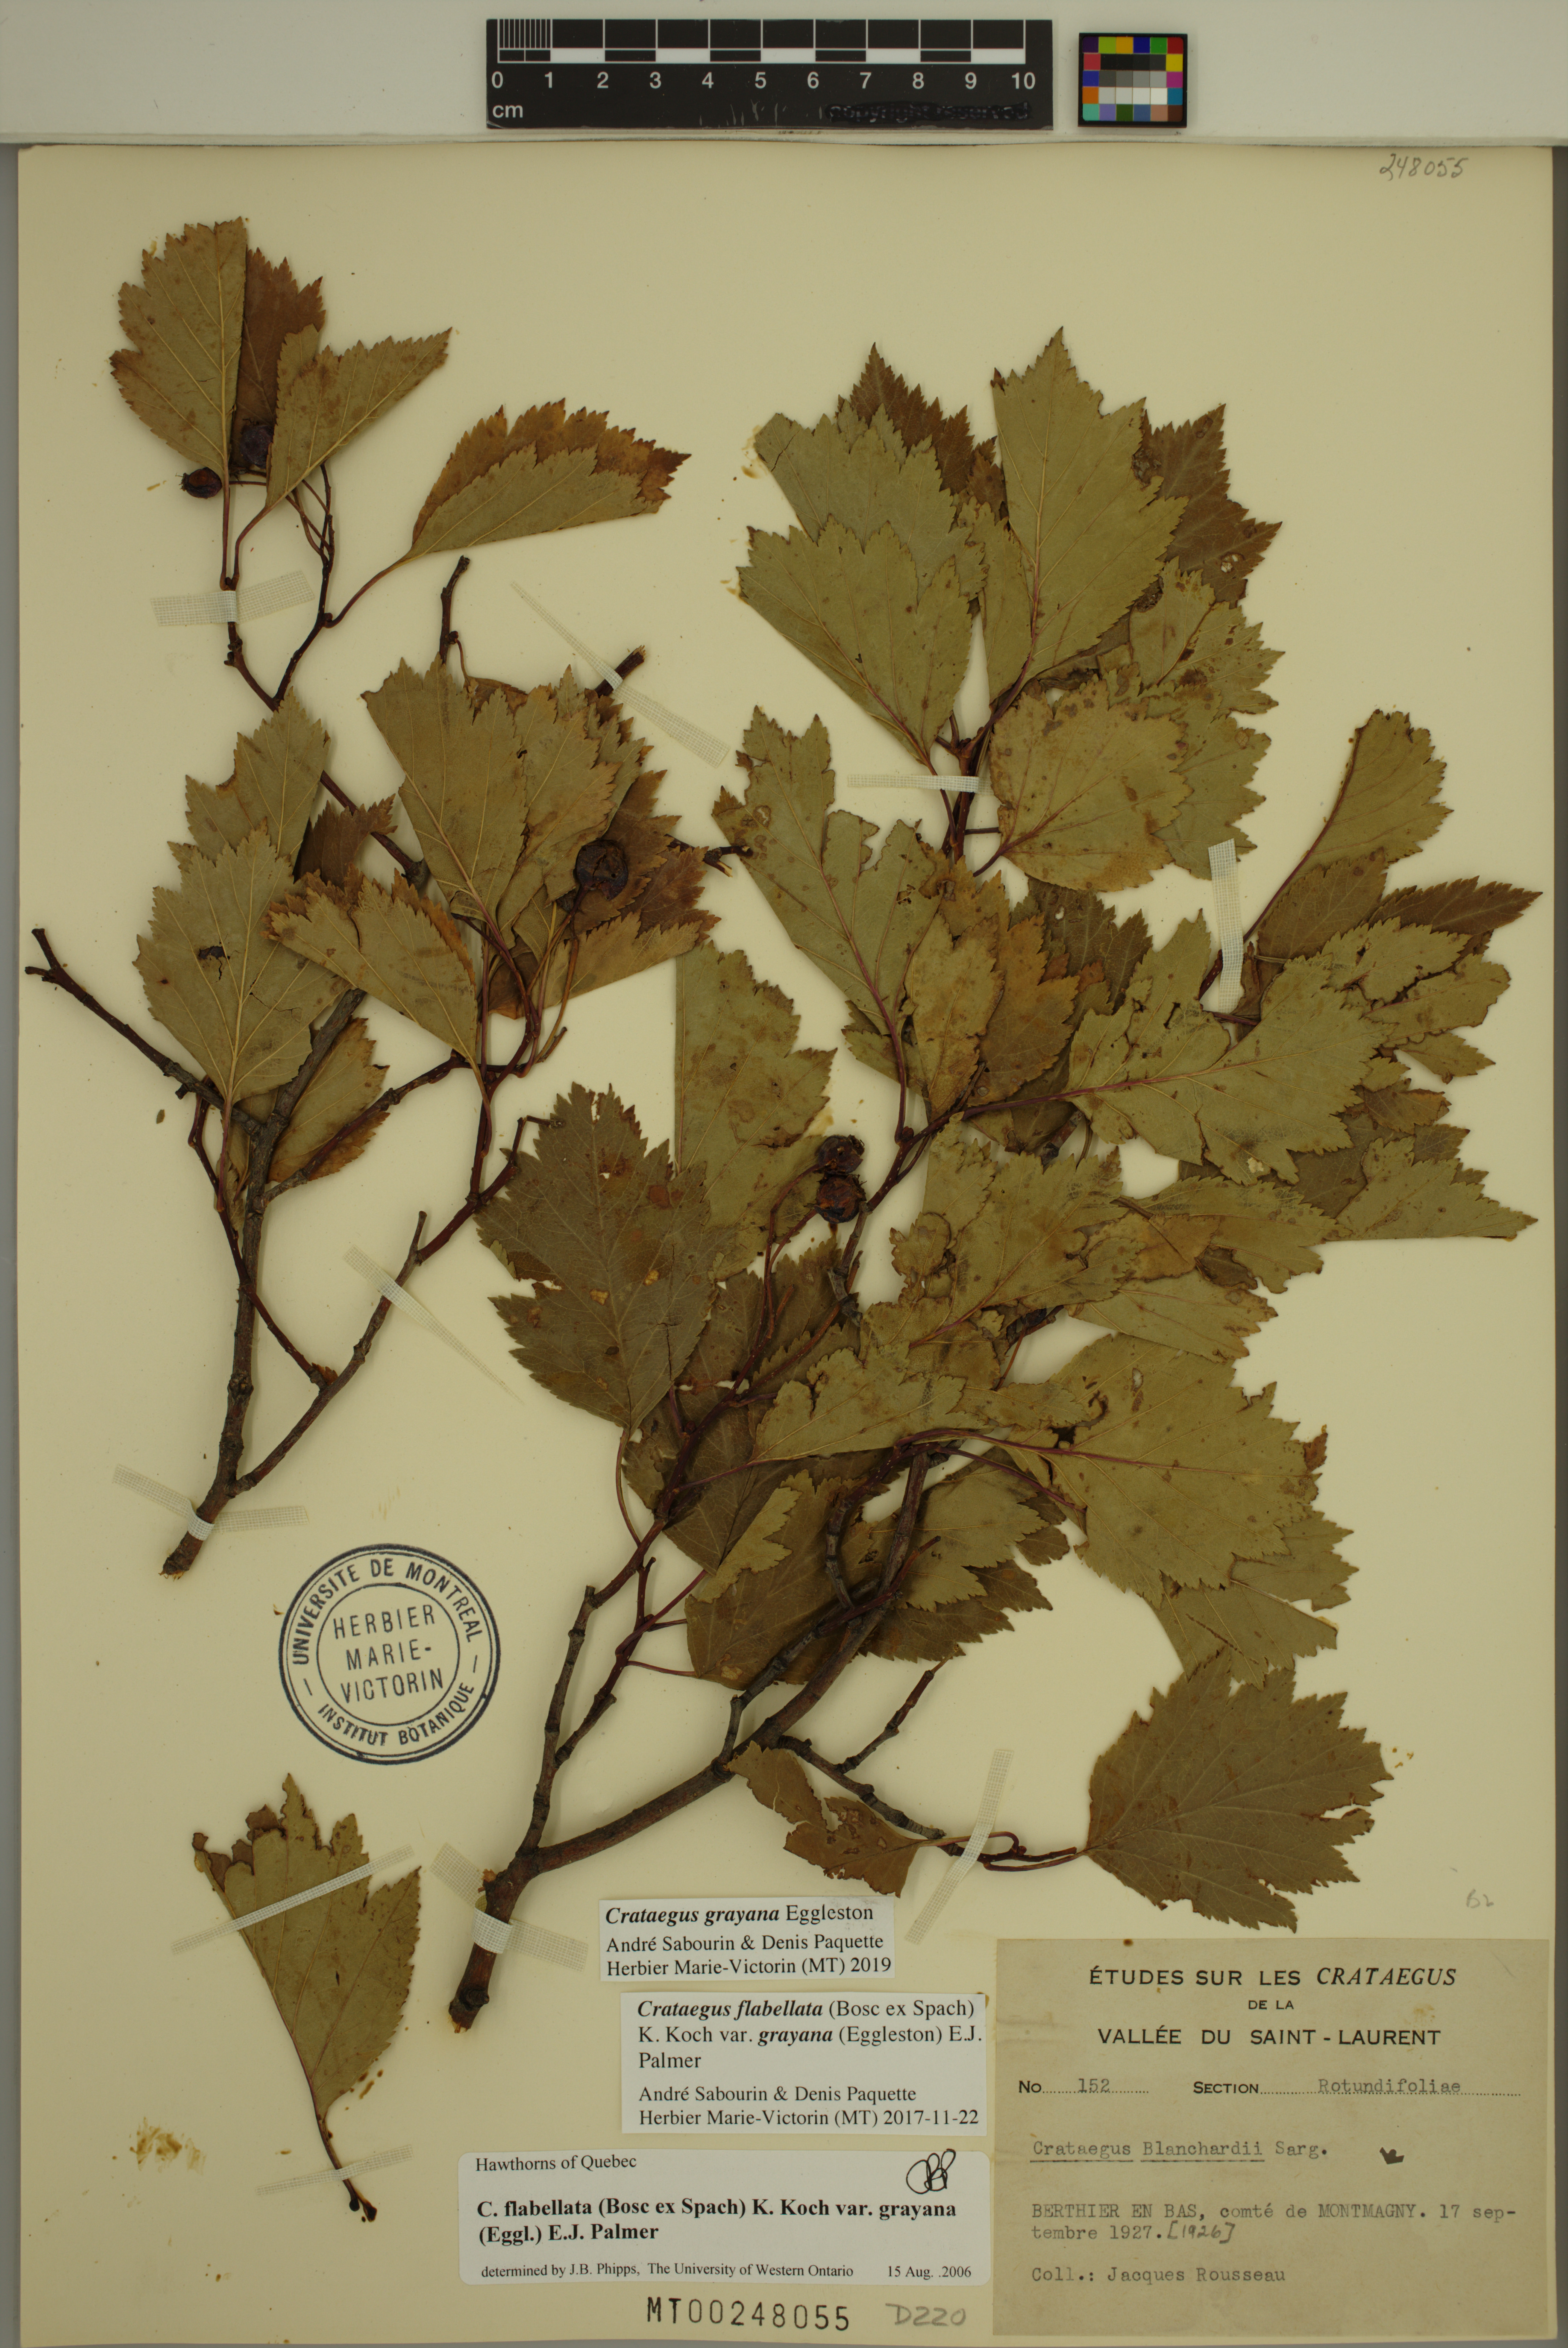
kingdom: Plantae
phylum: Tracheophyta
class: Magnoliopsida
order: Rosales
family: Rosaceae
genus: Crataegus
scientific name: Crataegus schuettei
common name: Schuette's hawthorn
